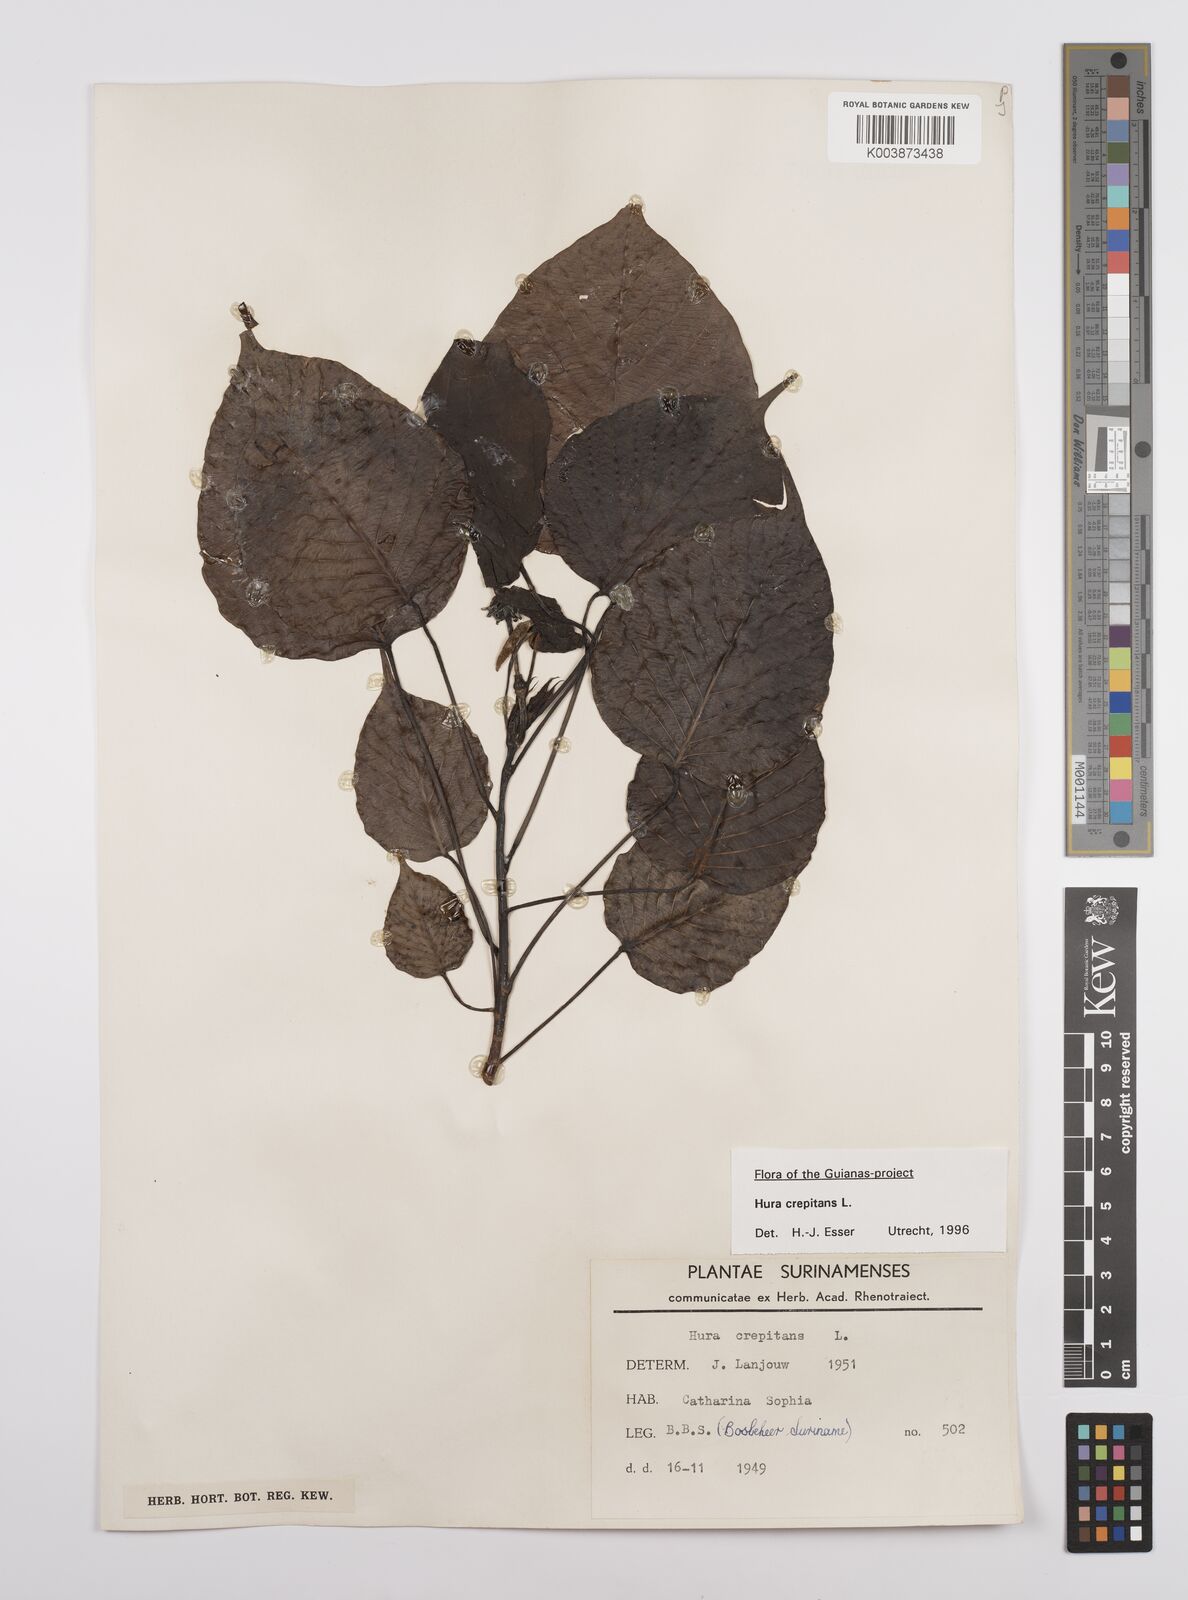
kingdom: Plantae
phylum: Tracheophyta
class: Magnoliopsida
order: Malpighiales
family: Euphorbiaceae
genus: Hura
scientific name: Hura crepitans
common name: Sandboxtree
